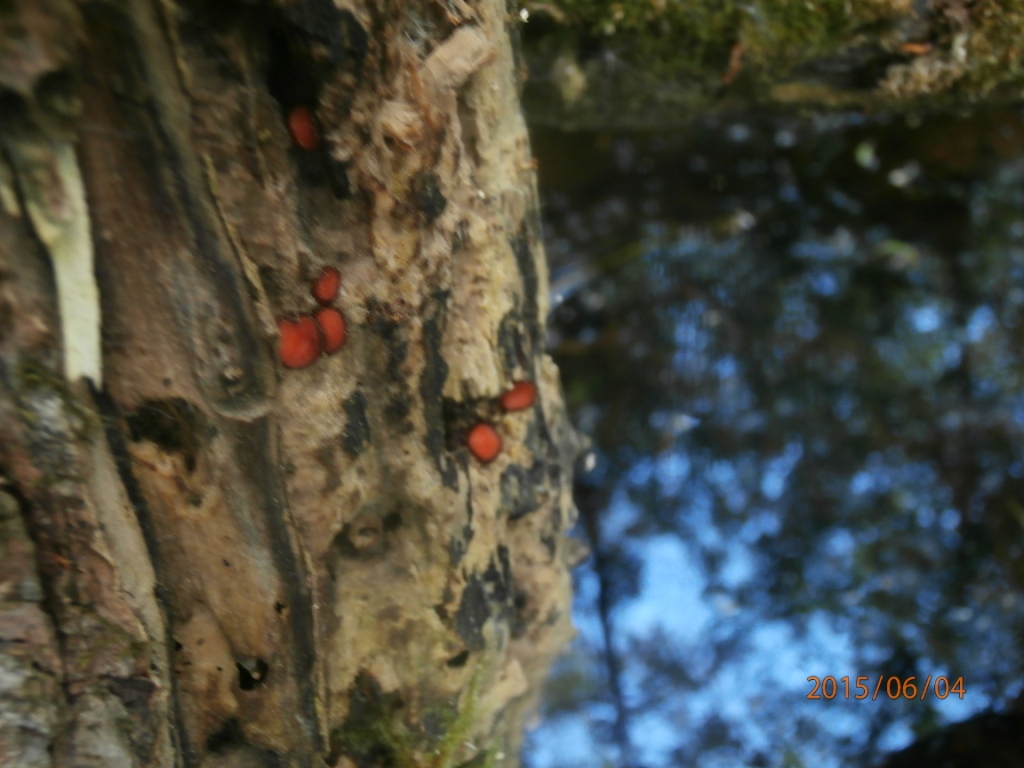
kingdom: Fungi
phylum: Ascomycota
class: Pezizomycetes
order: Pezizales
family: Pyronemataceae
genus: Scutellinia
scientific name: Scutellinia scutellata
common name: frynset skjoldbæger
